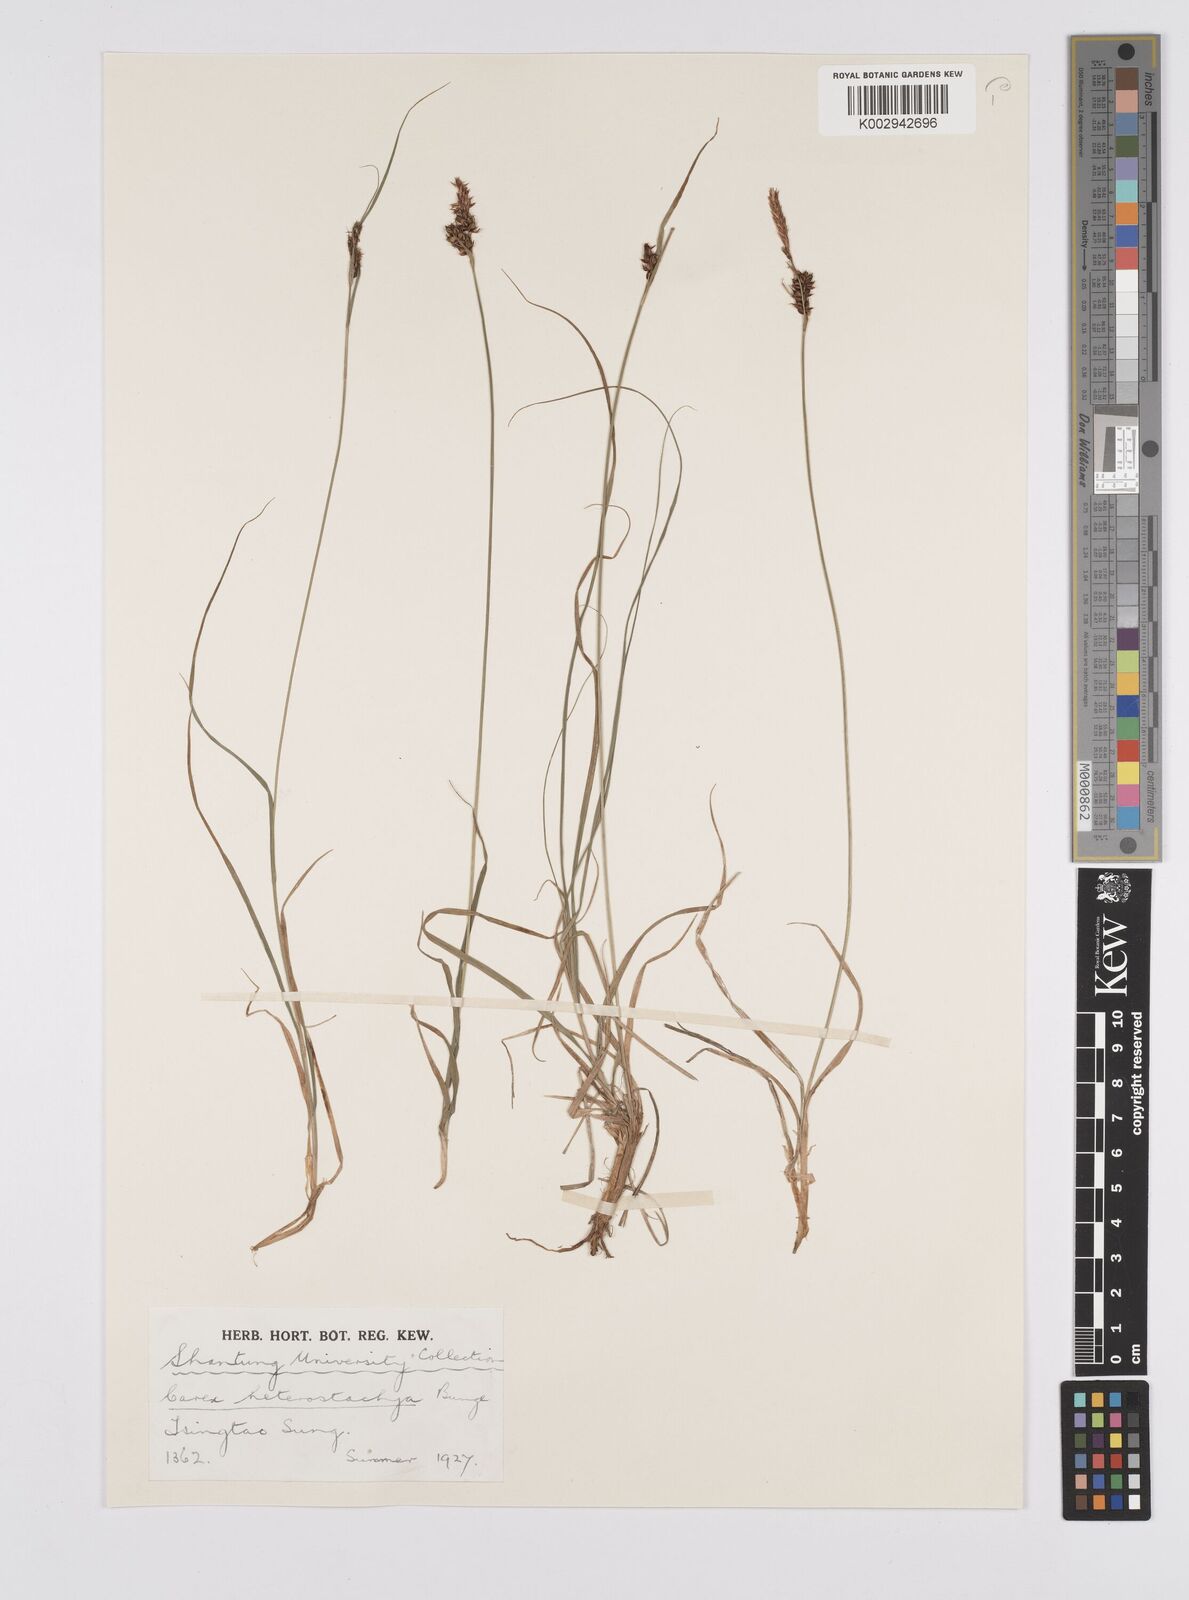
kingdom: Plantae
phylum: Tracheophyta
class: Liliopsida
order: Poales
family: Cyperaceae
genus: Carex
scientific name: Carex heterostachya
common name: Different-spike sedge
